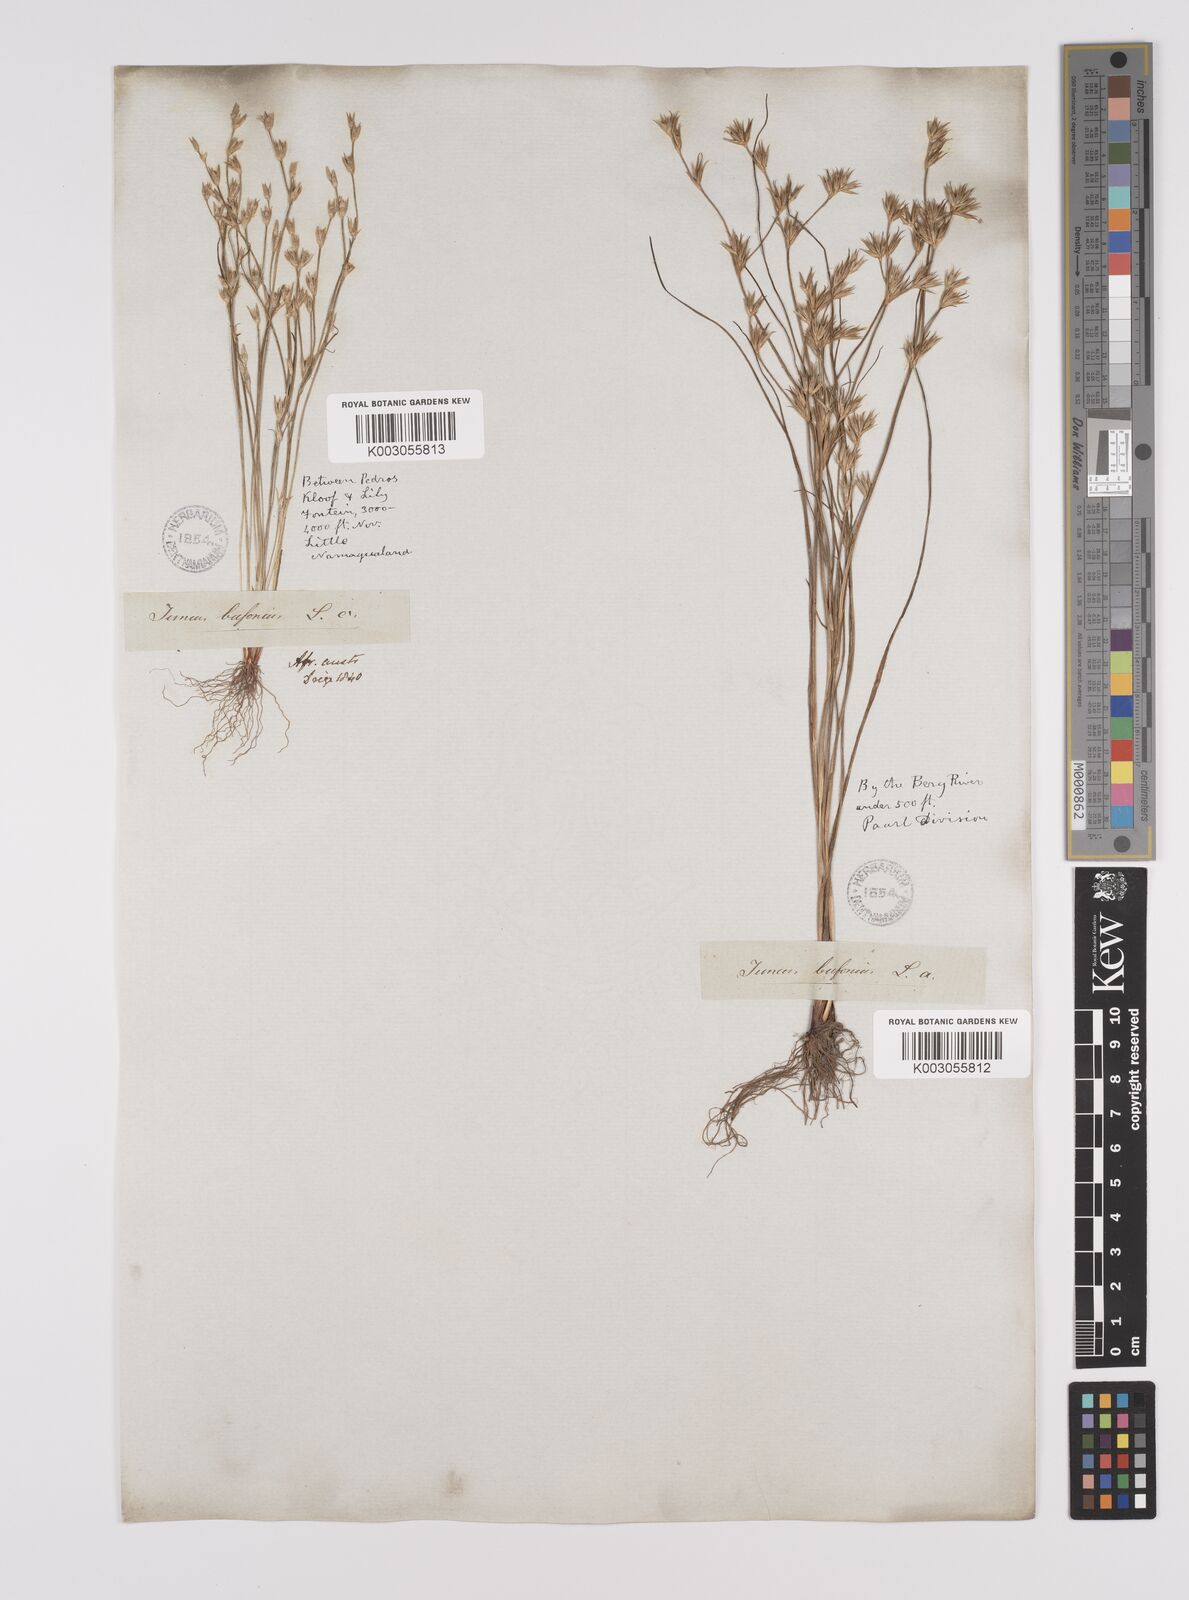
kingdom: Plantae
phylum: Tracheophyta
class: Liliopsida
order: Poales
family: Juncaceae
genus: Juncus
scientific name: Juncus bufonius
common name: Toad rush
